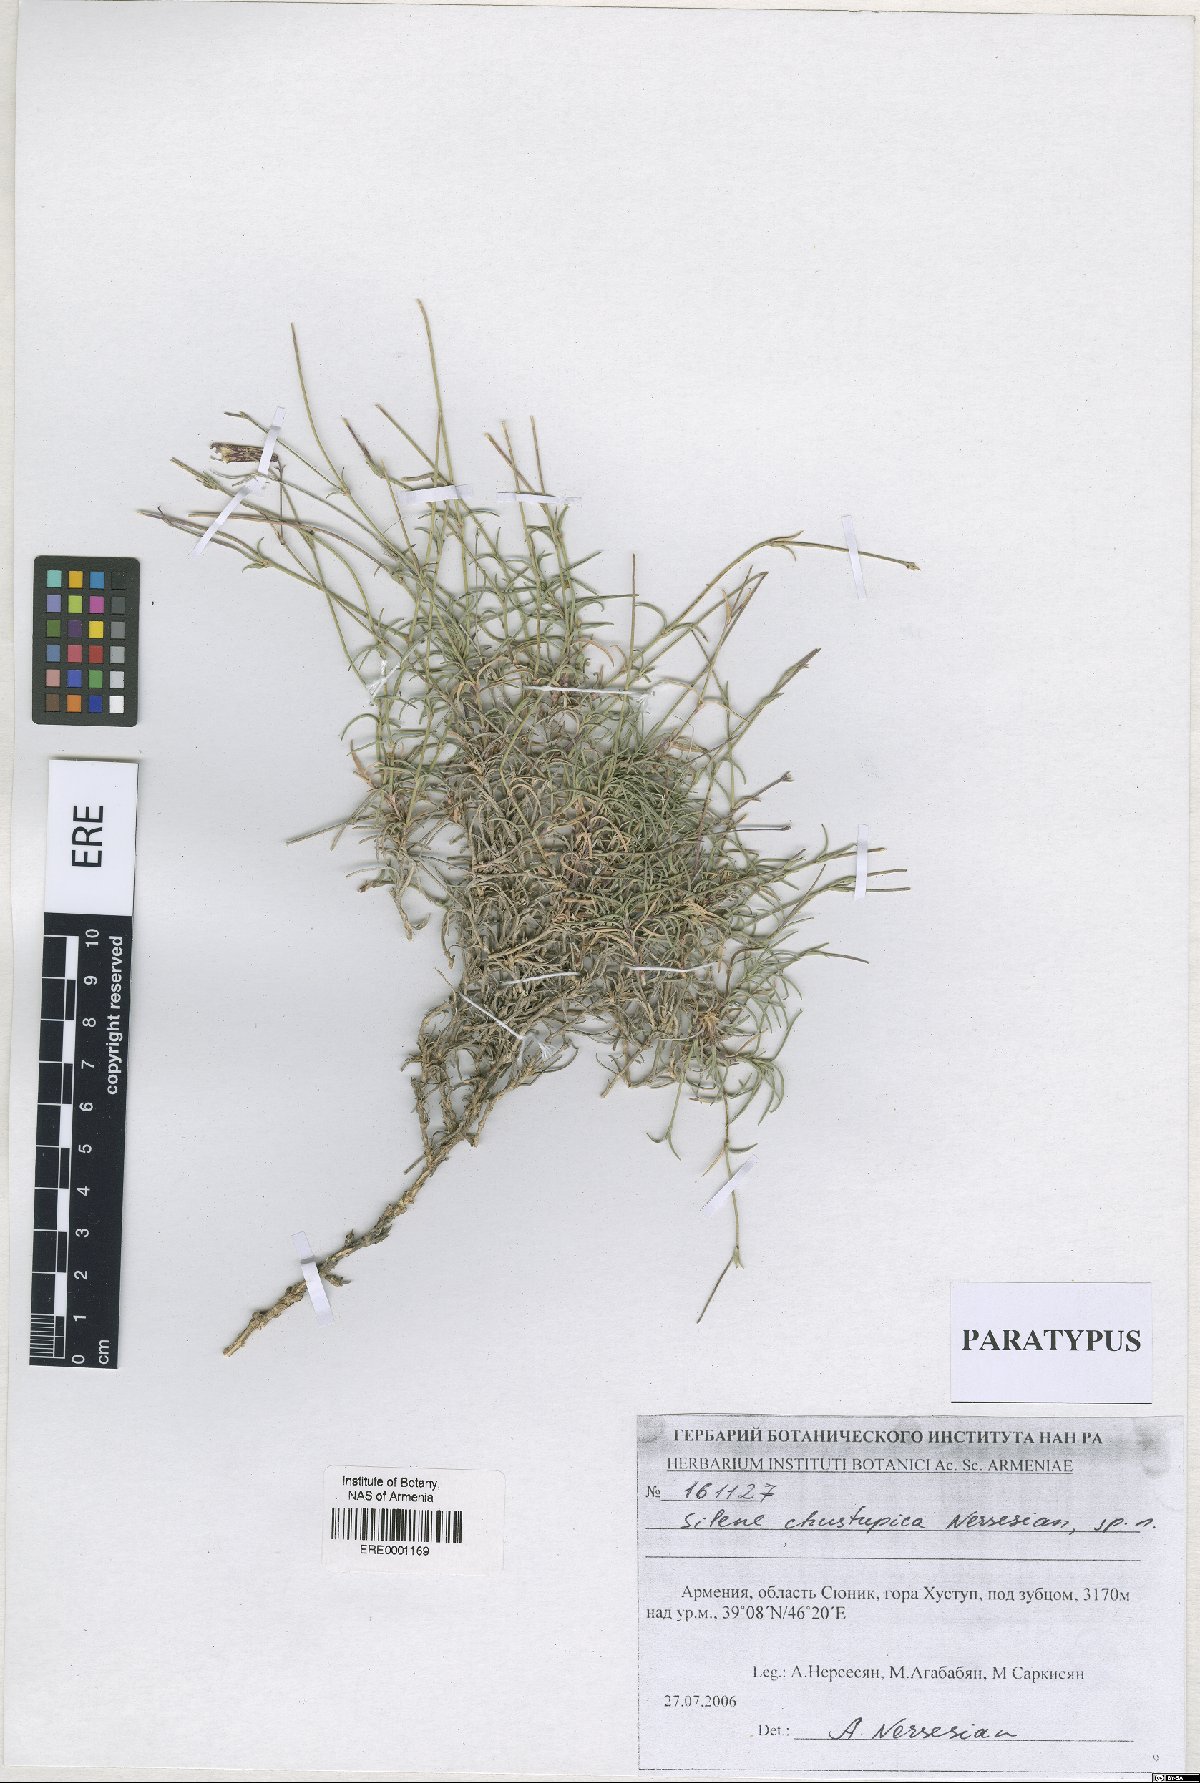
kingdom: Plantae
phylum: Tracheophyta
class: Magnoliopsida
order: Caryophyllales
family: Caryophyllaceae
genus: Silene
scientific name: Silene pungens
